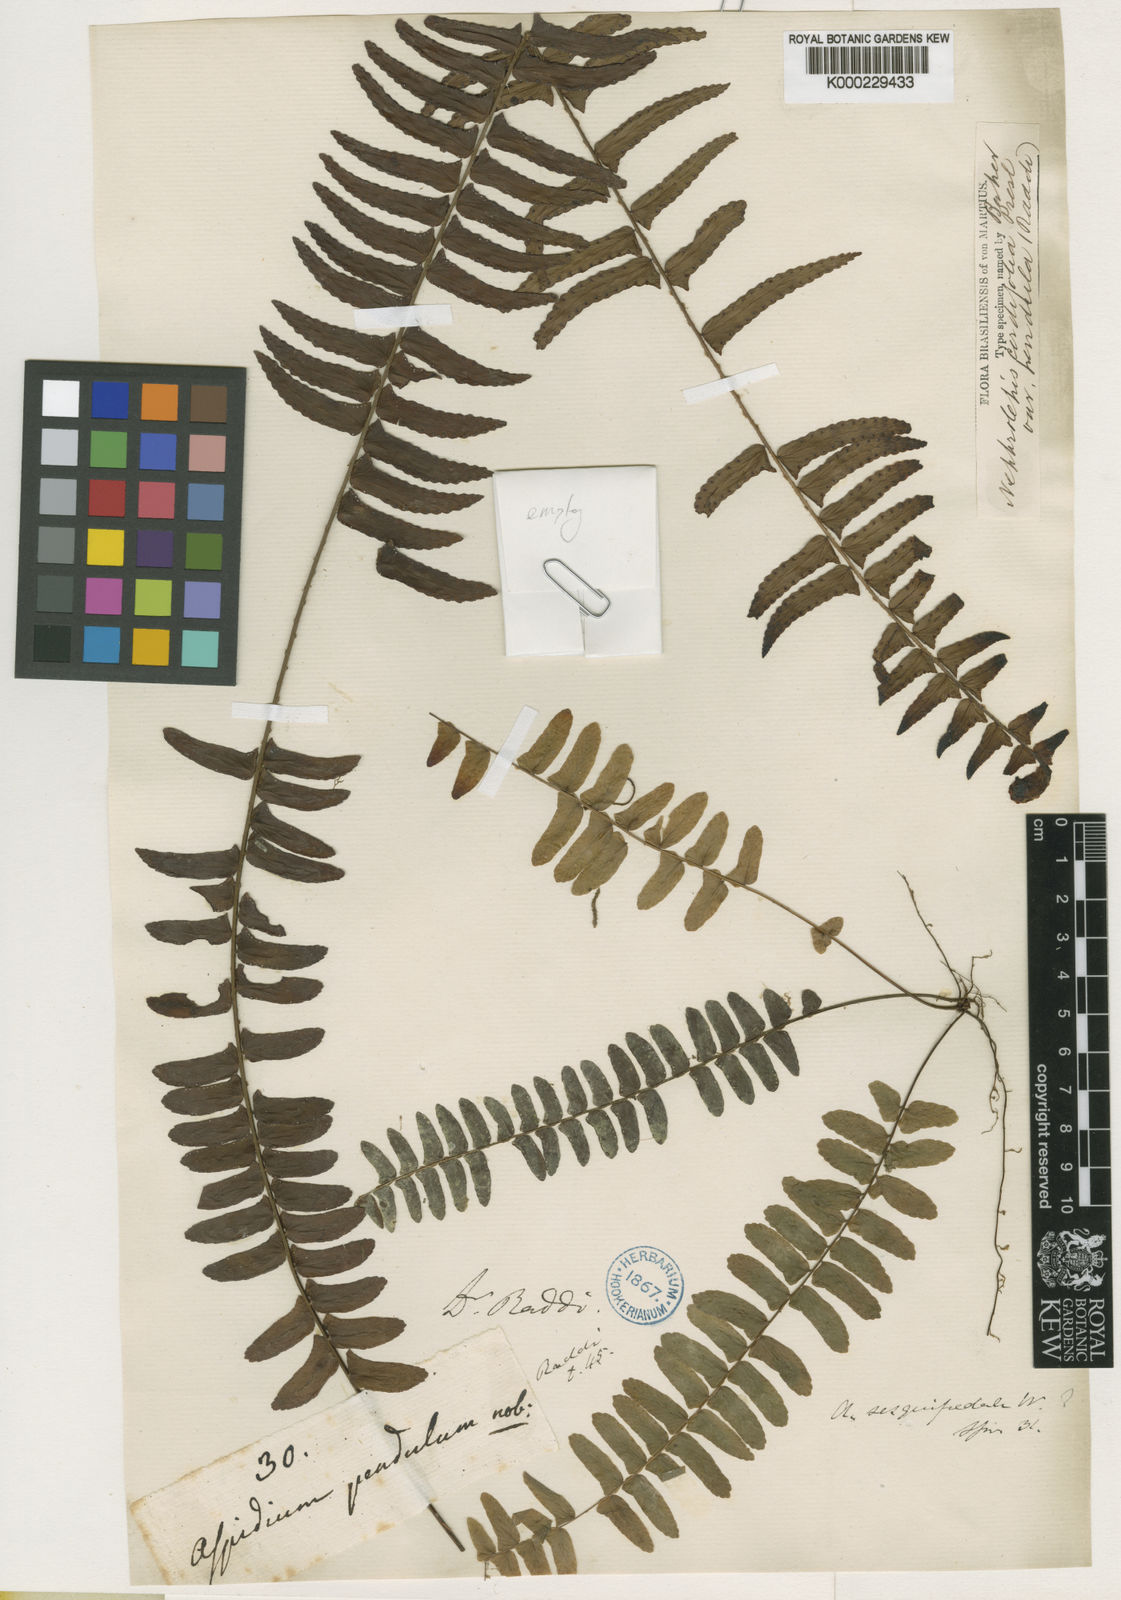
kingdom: Plantae
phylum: Tracheophyta
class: Polypodiopsida
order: Polypodiales
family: Nephrolepidaceae
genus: Nephrolepis
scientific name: Nephrolepis pendula
